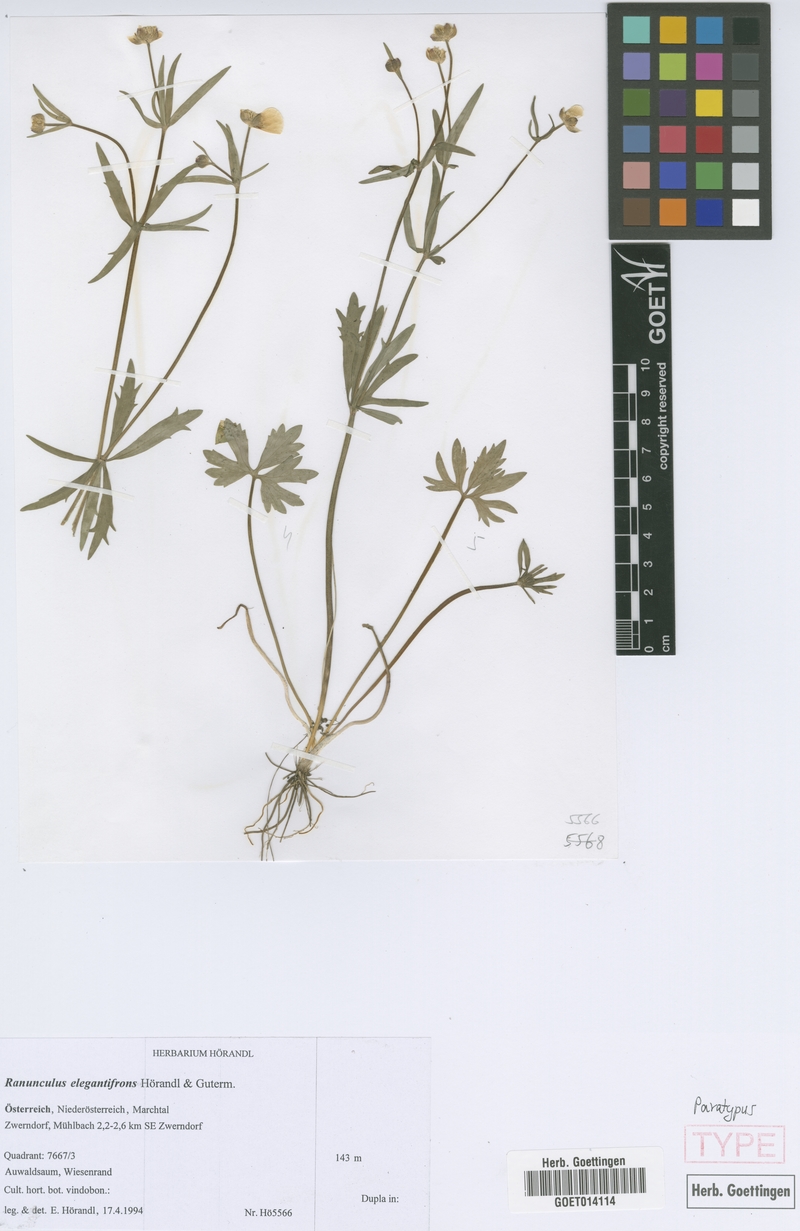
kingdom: Plantae
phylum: Tracheophyta
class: Magnoliopsida
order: Ranunculales
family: Ranunculaceae
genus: Ranunculus
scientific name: Ranunculus elegantifrons
